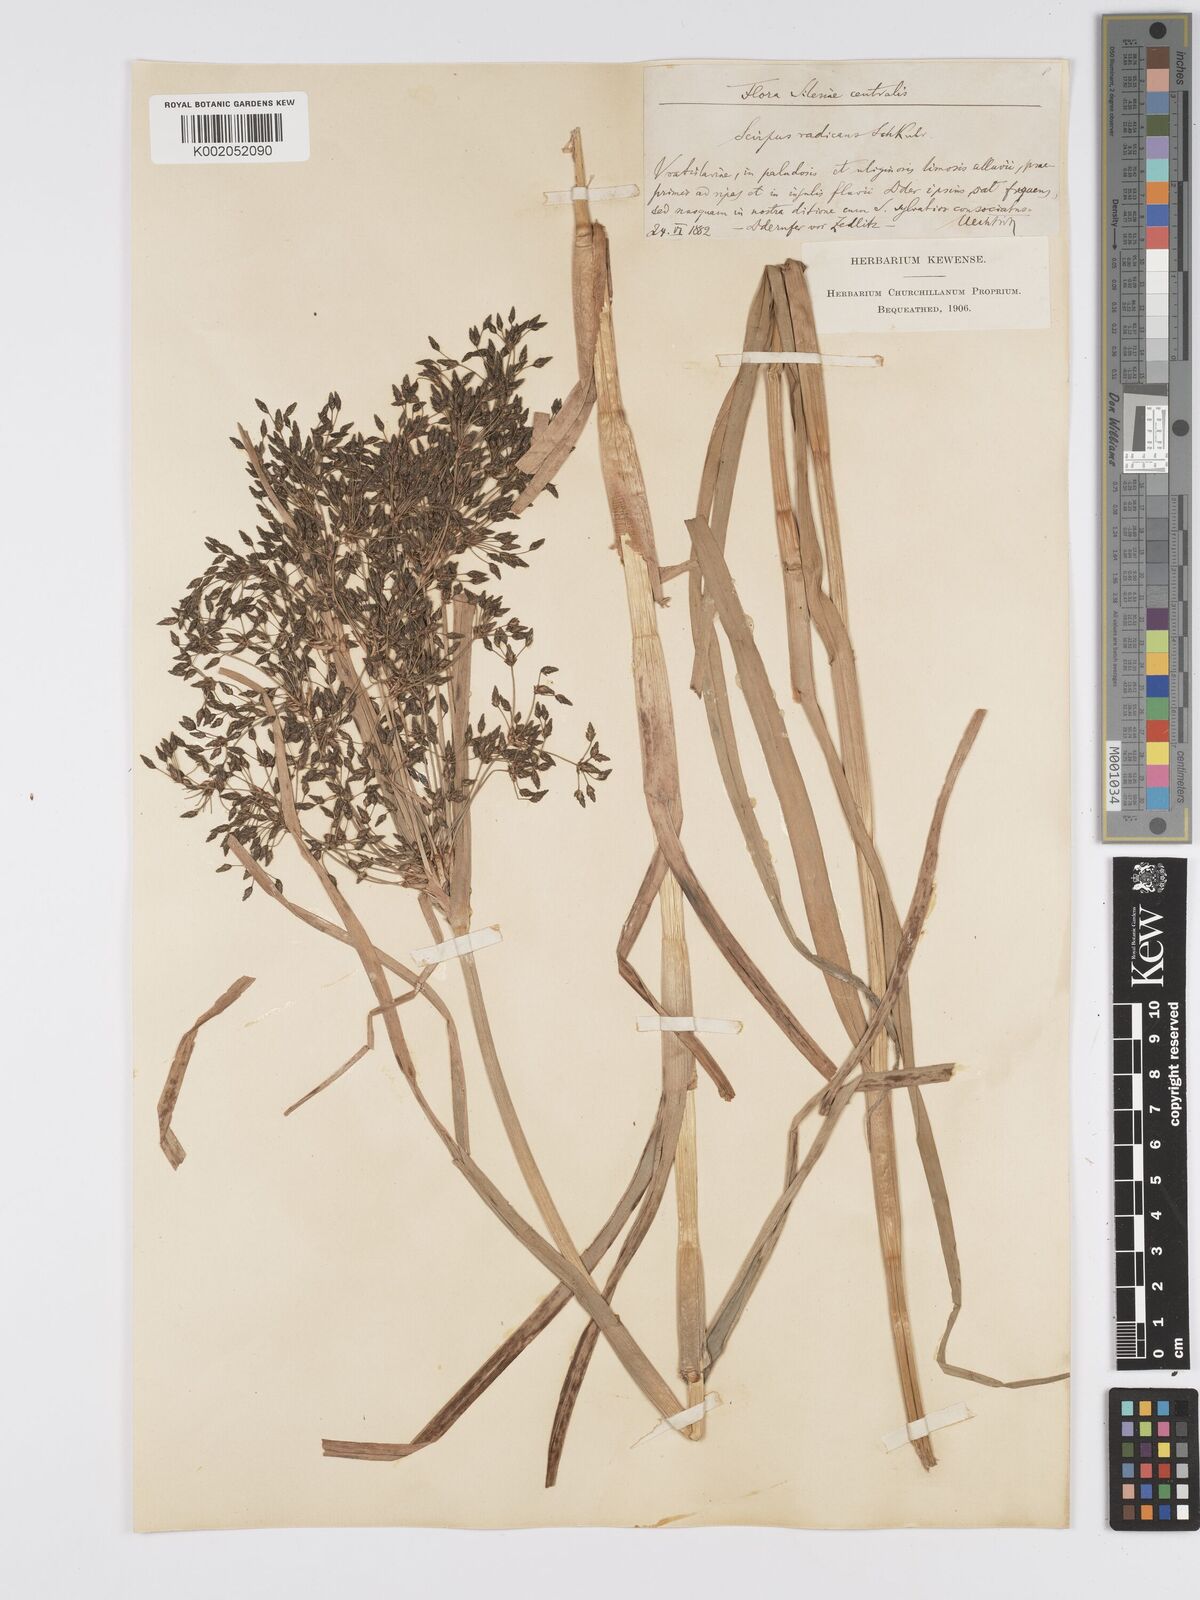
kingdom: Plantae
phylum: Tracheophyta
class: Liliopsida
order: Poales
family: Cyperaceae
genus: Scirpus
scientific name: Scirpus radicans
